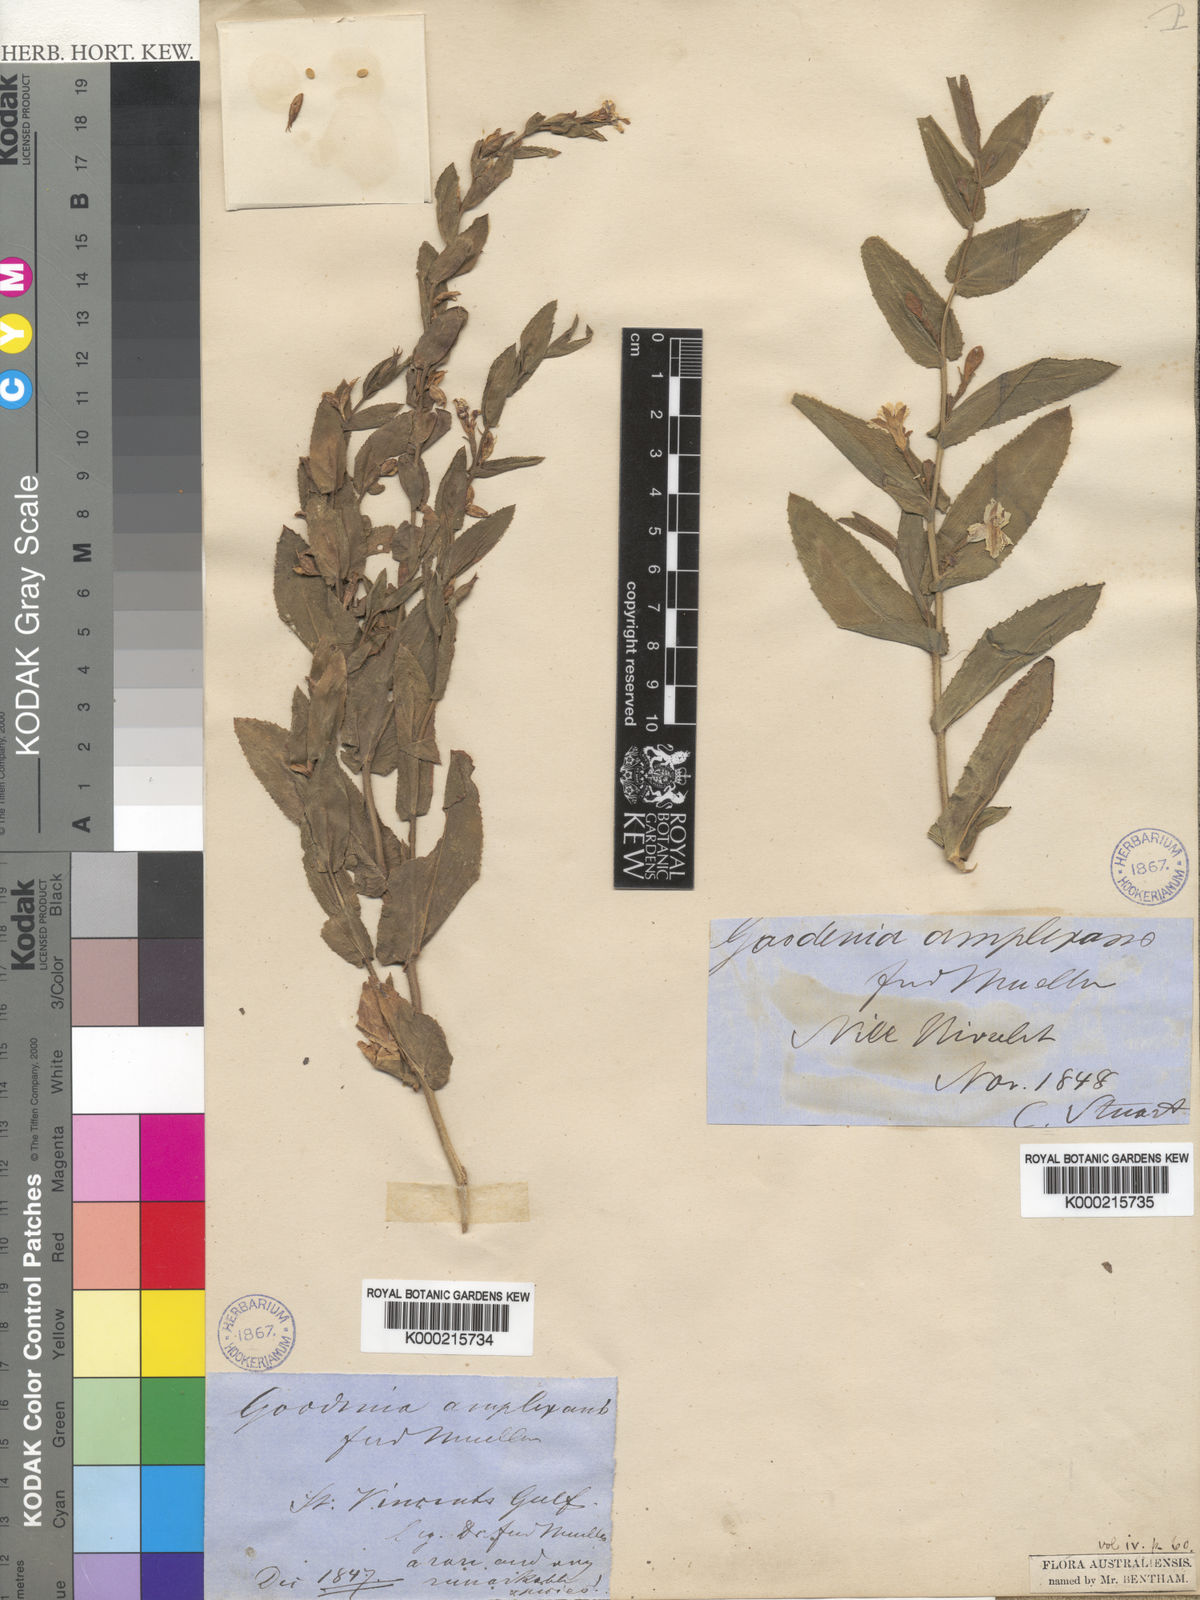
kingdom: Plantae
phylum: Tracheophyta
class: Magnoliopsida
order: Asterales
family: Goodeniaceae
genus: Goodenia
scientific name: Goodenia amplexans
